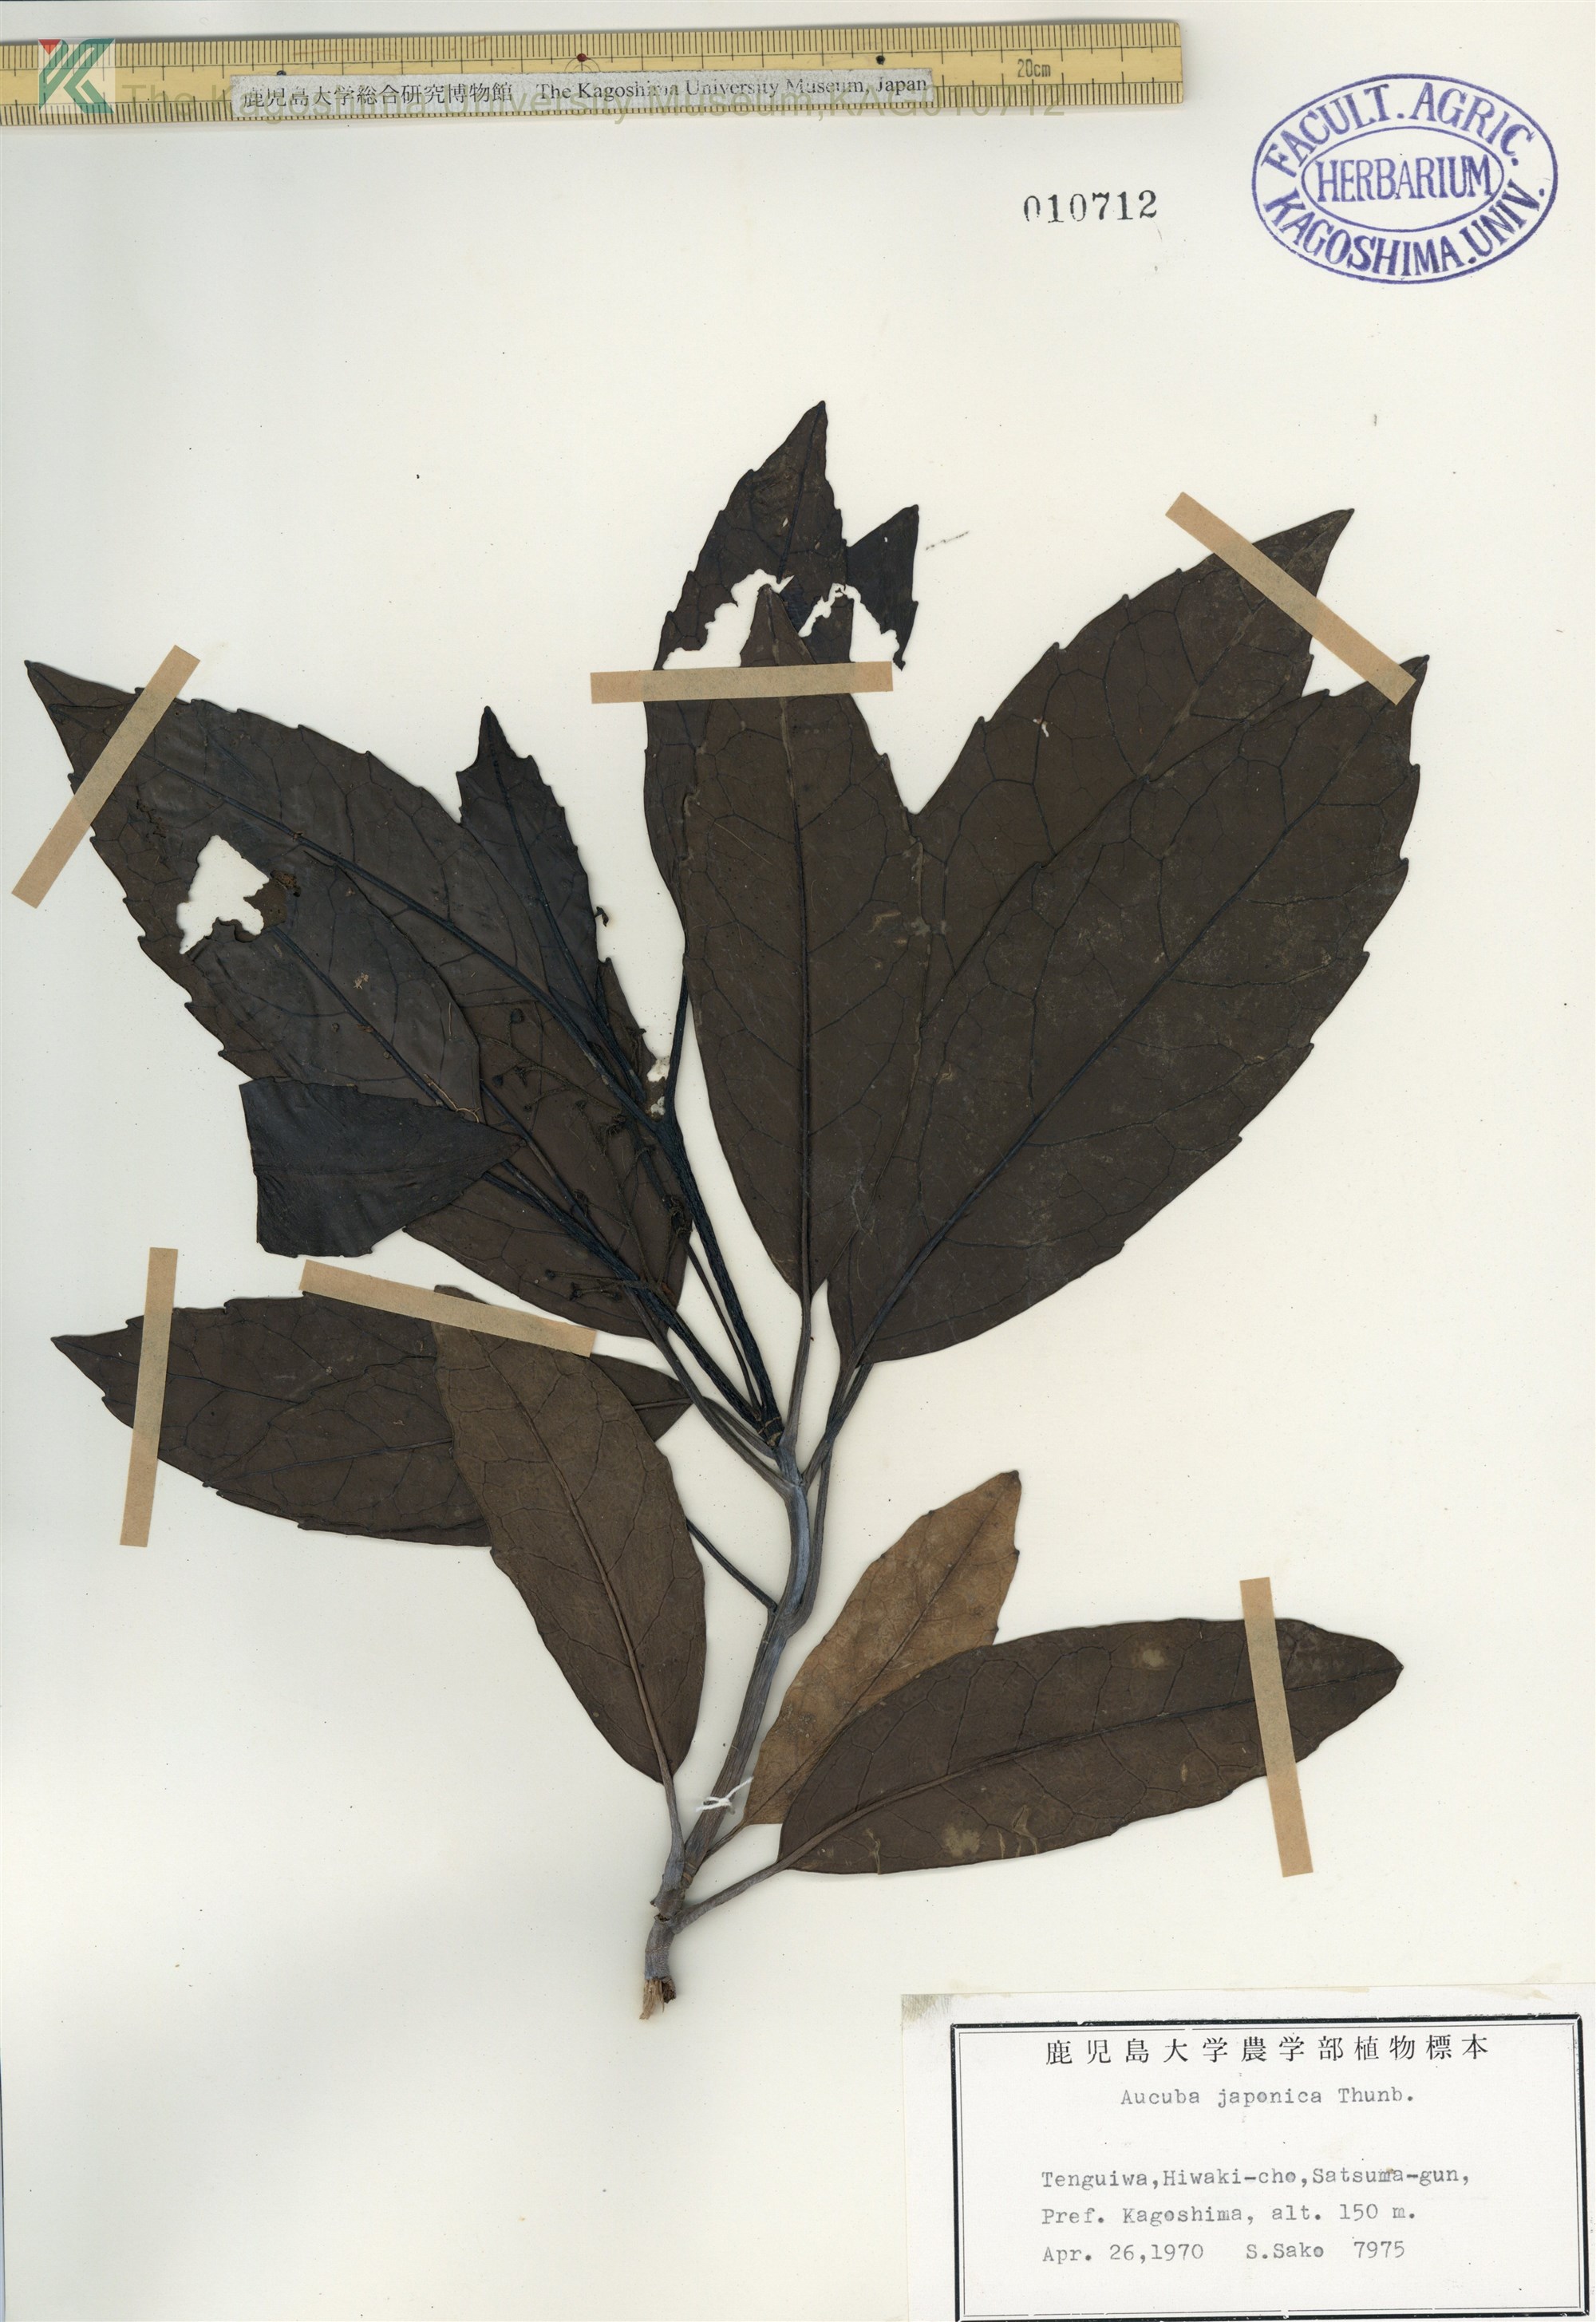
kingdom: Plantae
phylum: Tracheophyta
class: Magnoliopsida
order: Garryales
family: Garryaceae
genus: Aucuba
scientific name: Aucuba japonica
